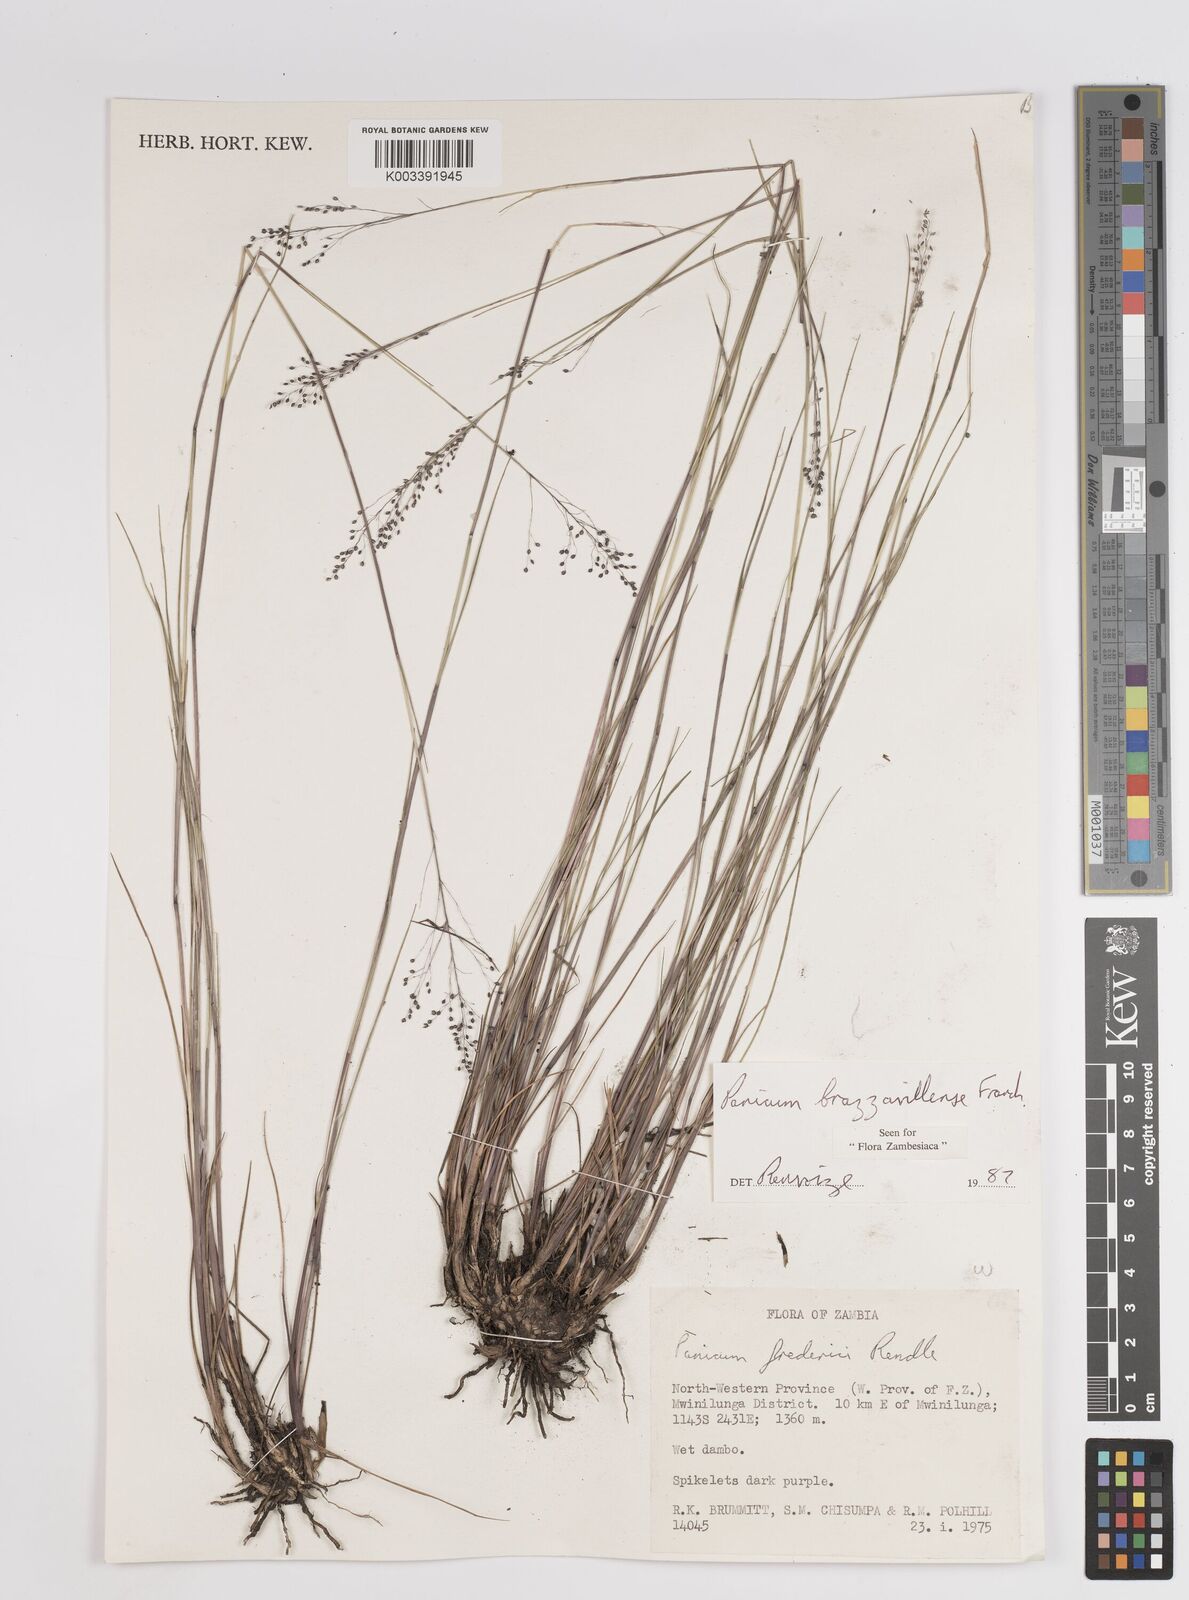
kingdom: Plantae
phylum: Tracheophyta
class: Liliopsida
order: Poales
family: Poaceae
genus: Trichanthecium
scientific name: Trichanthecium brazzavillense
